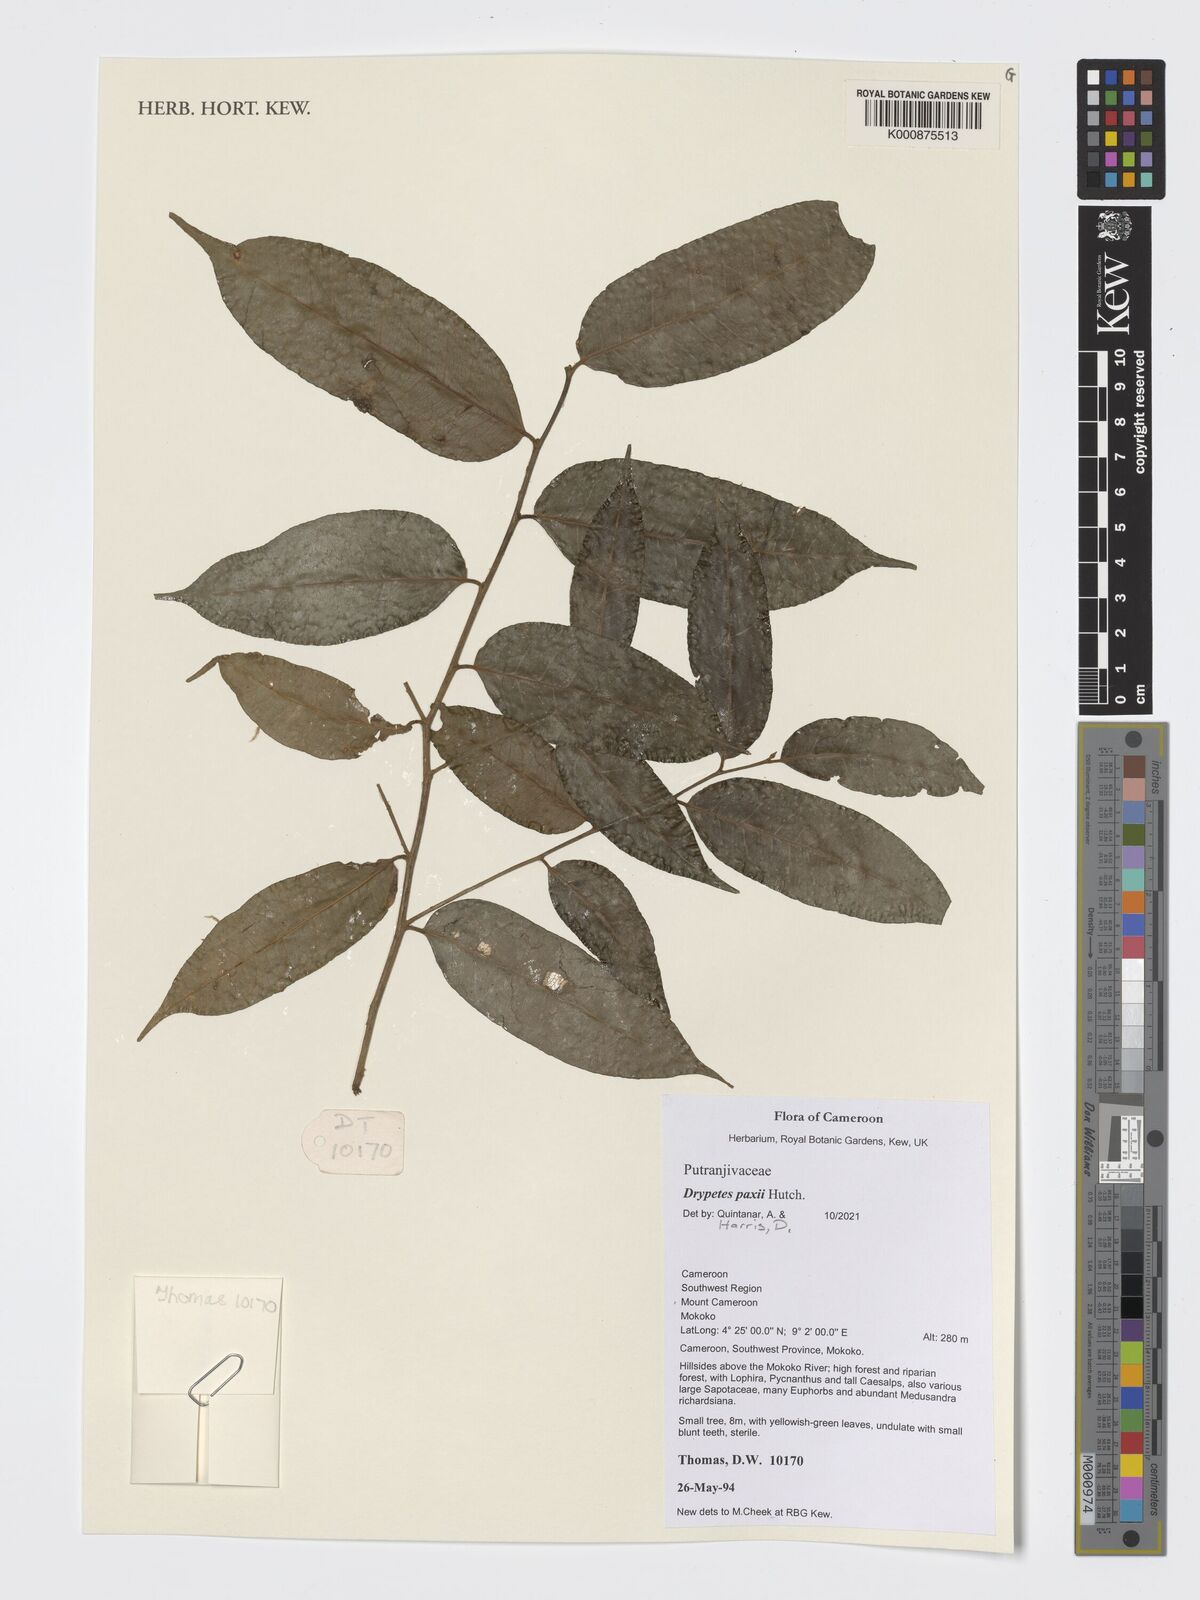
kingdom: Plantae
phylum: Tracheophyta
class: Magnoliopsida
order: Malpighiales
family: Putranjivaceae
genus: Drypetes
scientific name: Drypetes paxii
